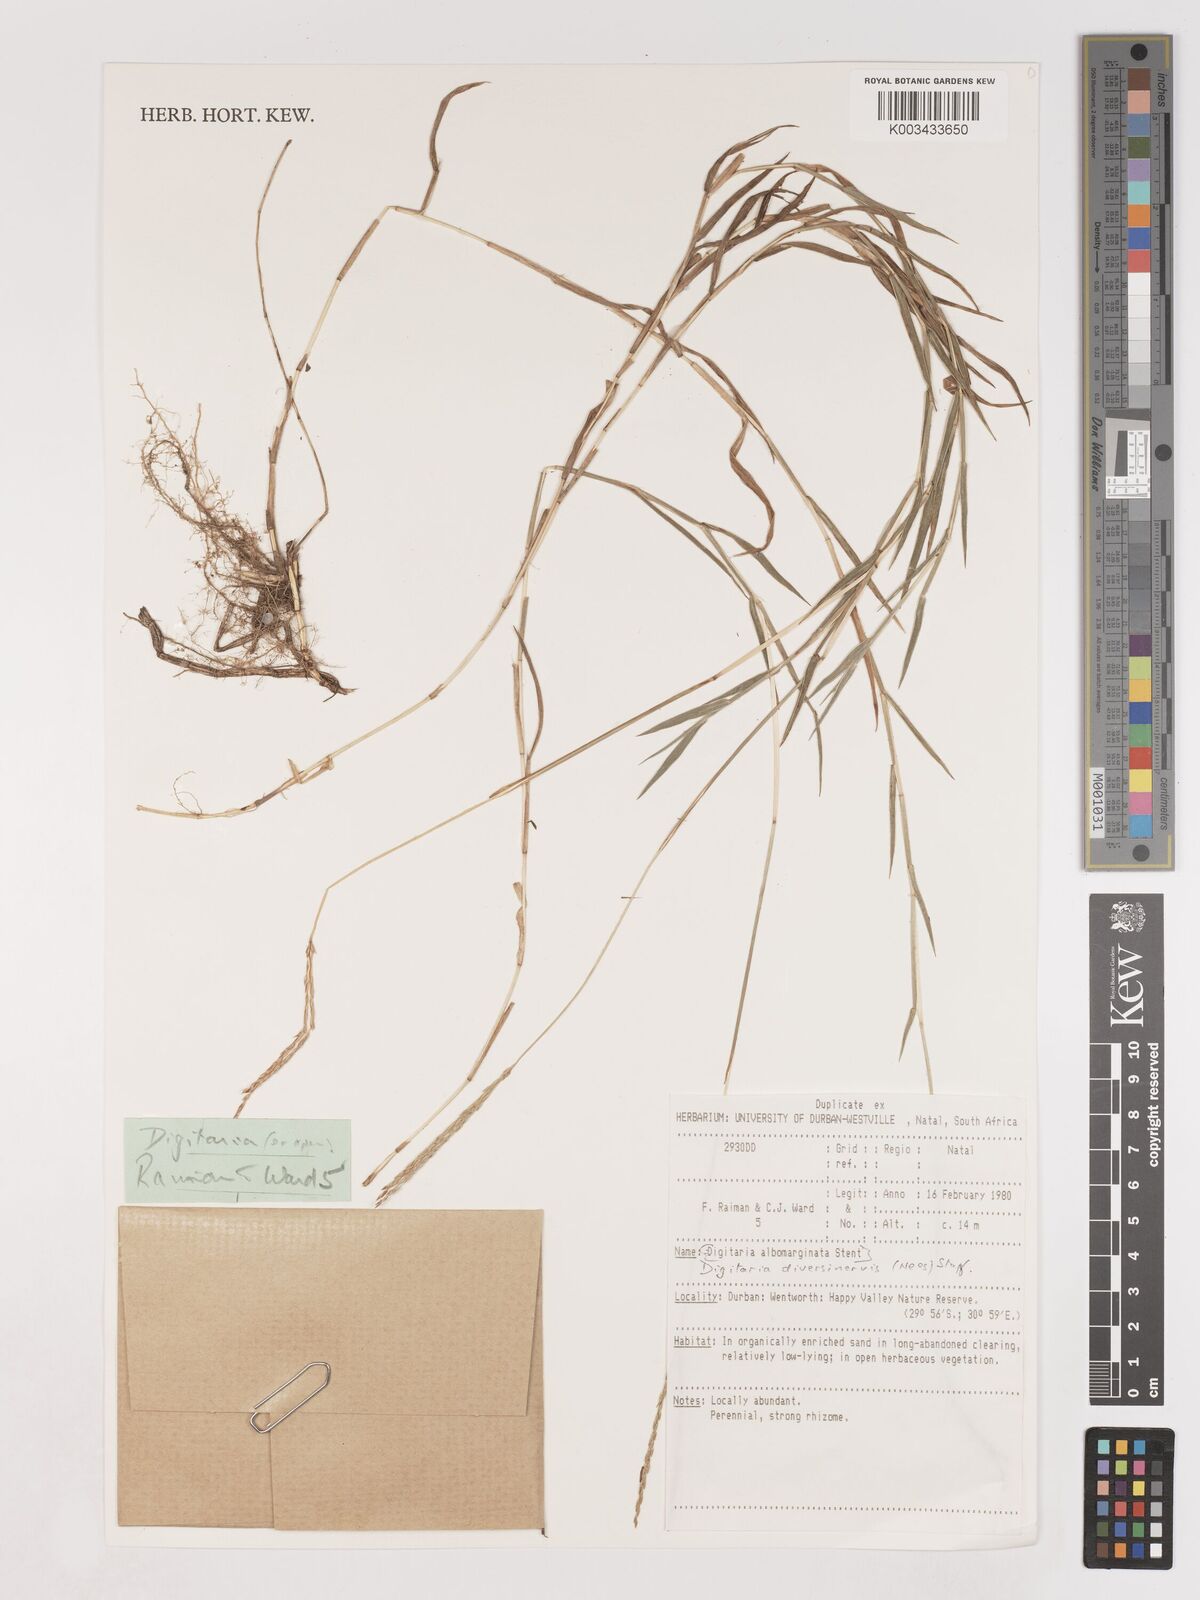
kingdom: Plantae
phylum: Tracheophyta
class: Liliopsida
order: Poales
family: Poaceae
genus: Digitaria
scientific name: Digitaria diversinervis
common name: Richmond finger grass
